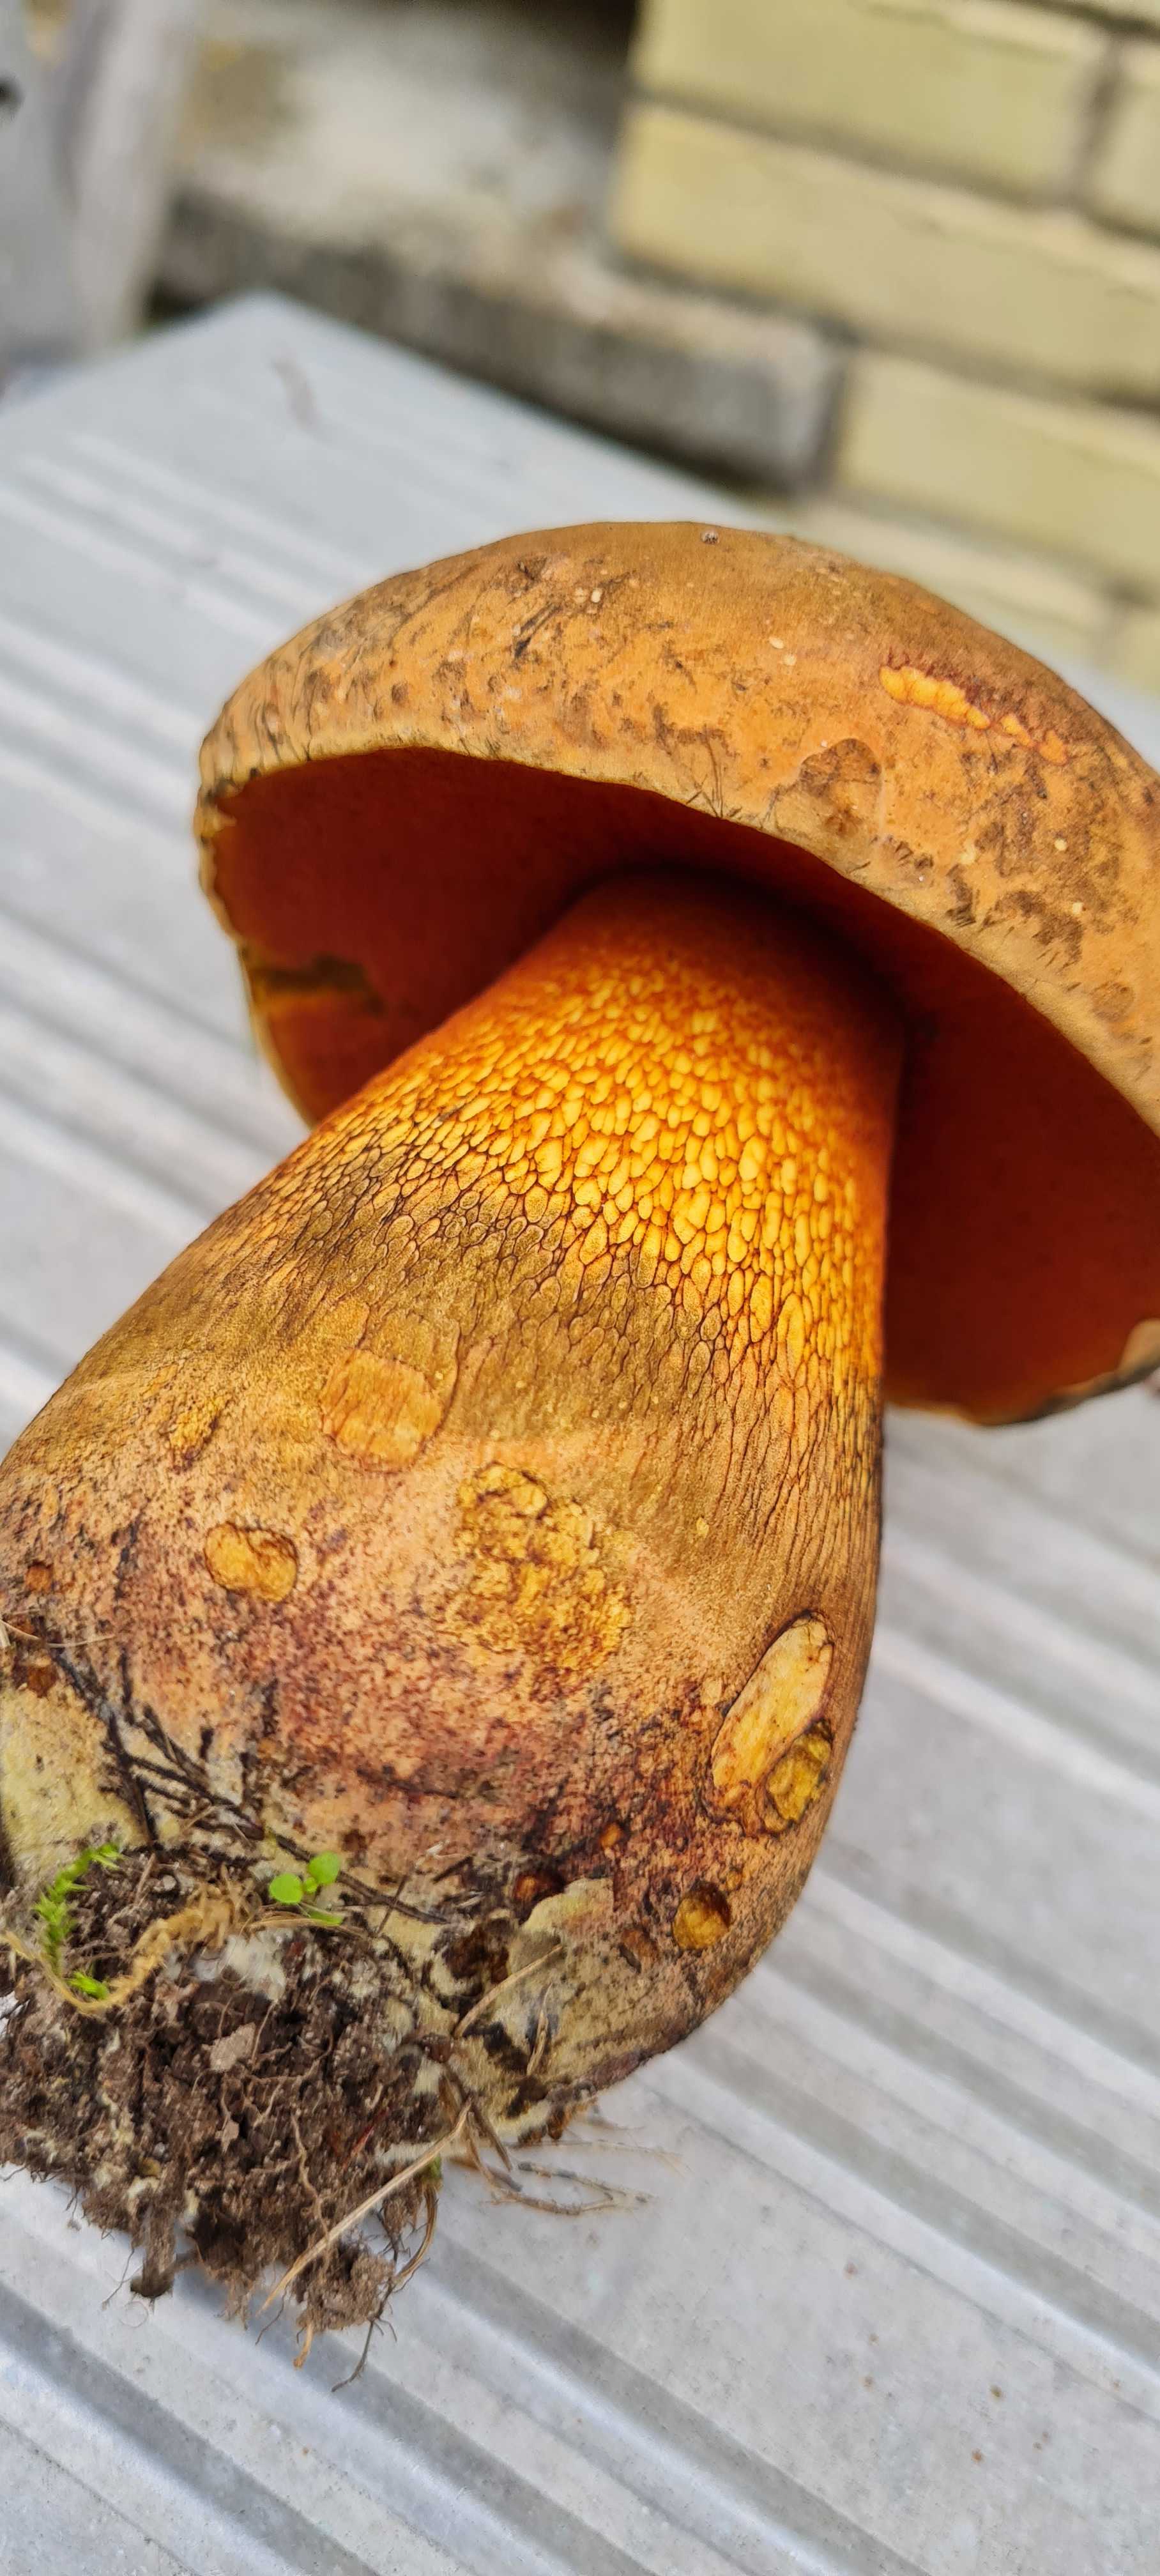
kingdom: Fungi
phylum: Basidiomycota
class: Agaricomycetes
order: Boletales
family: Boletaceae
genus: Suillellus
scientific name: Suillellus luridus
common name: netstokket indigorørhat
